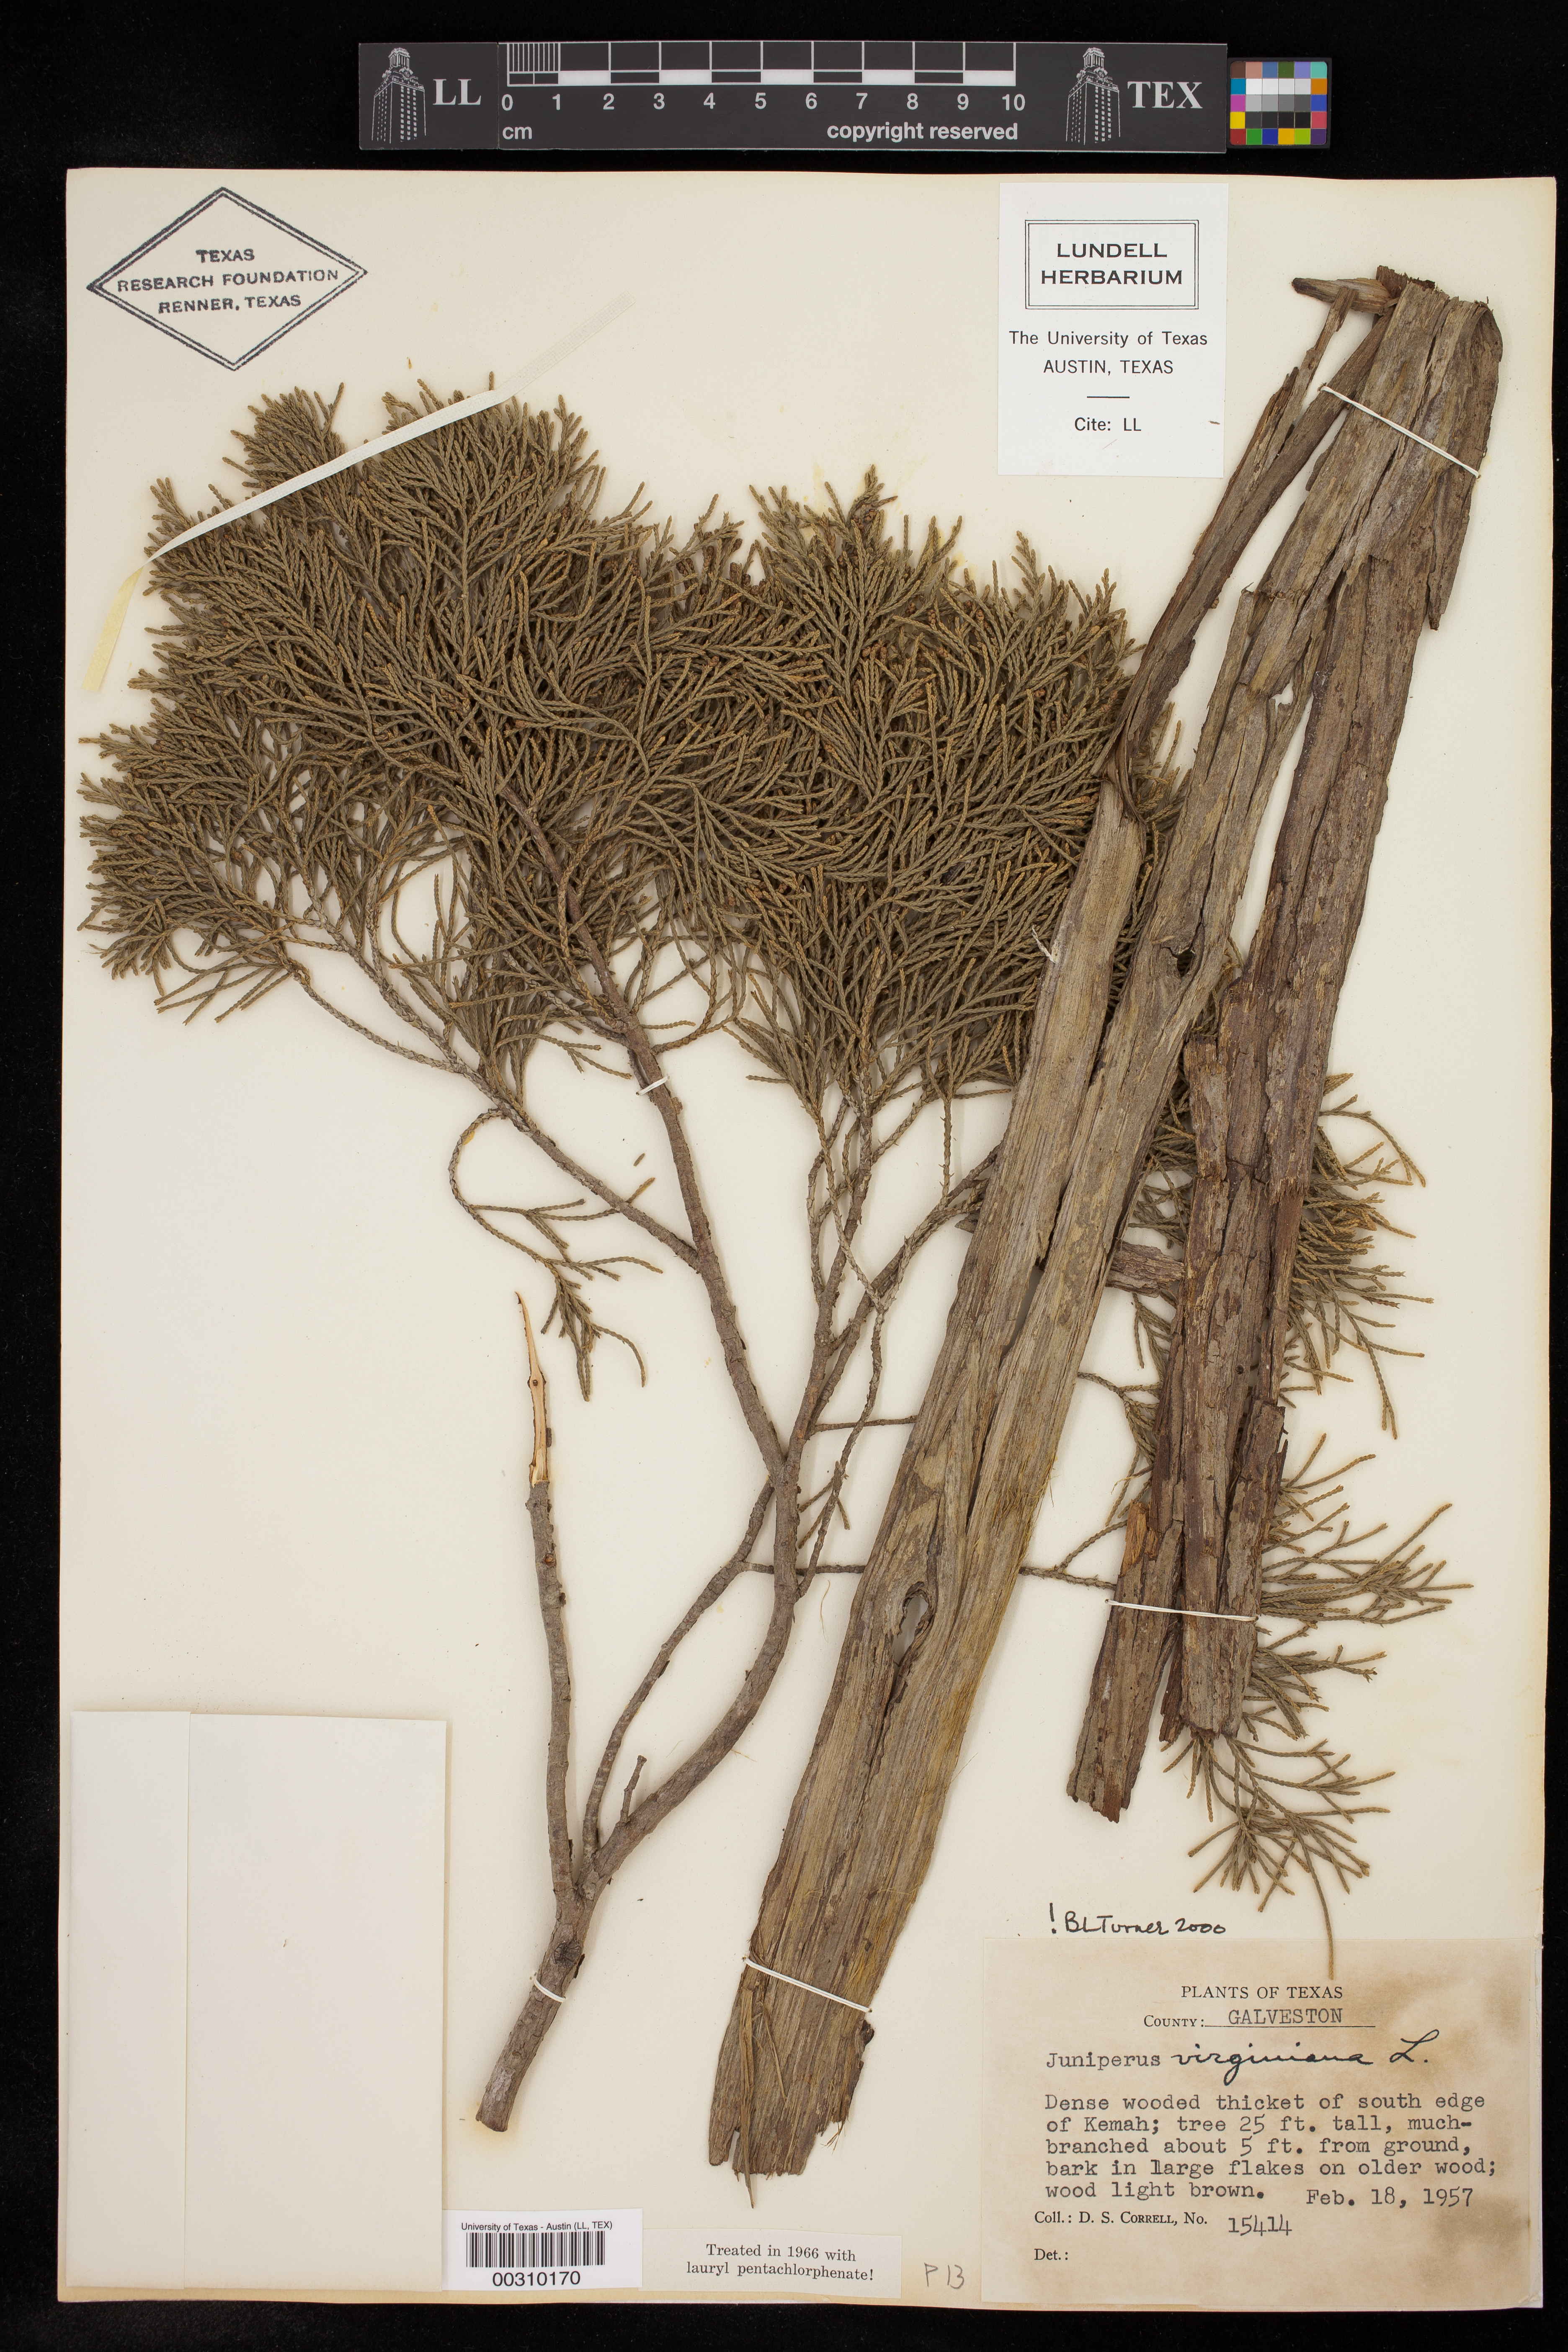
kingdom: Plantae
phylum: Tracheophyta
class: Pinopsida
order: Pinales
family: Cupressaceae
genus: Juniperus
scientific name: Juniperus virginiana
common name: Red juniper
